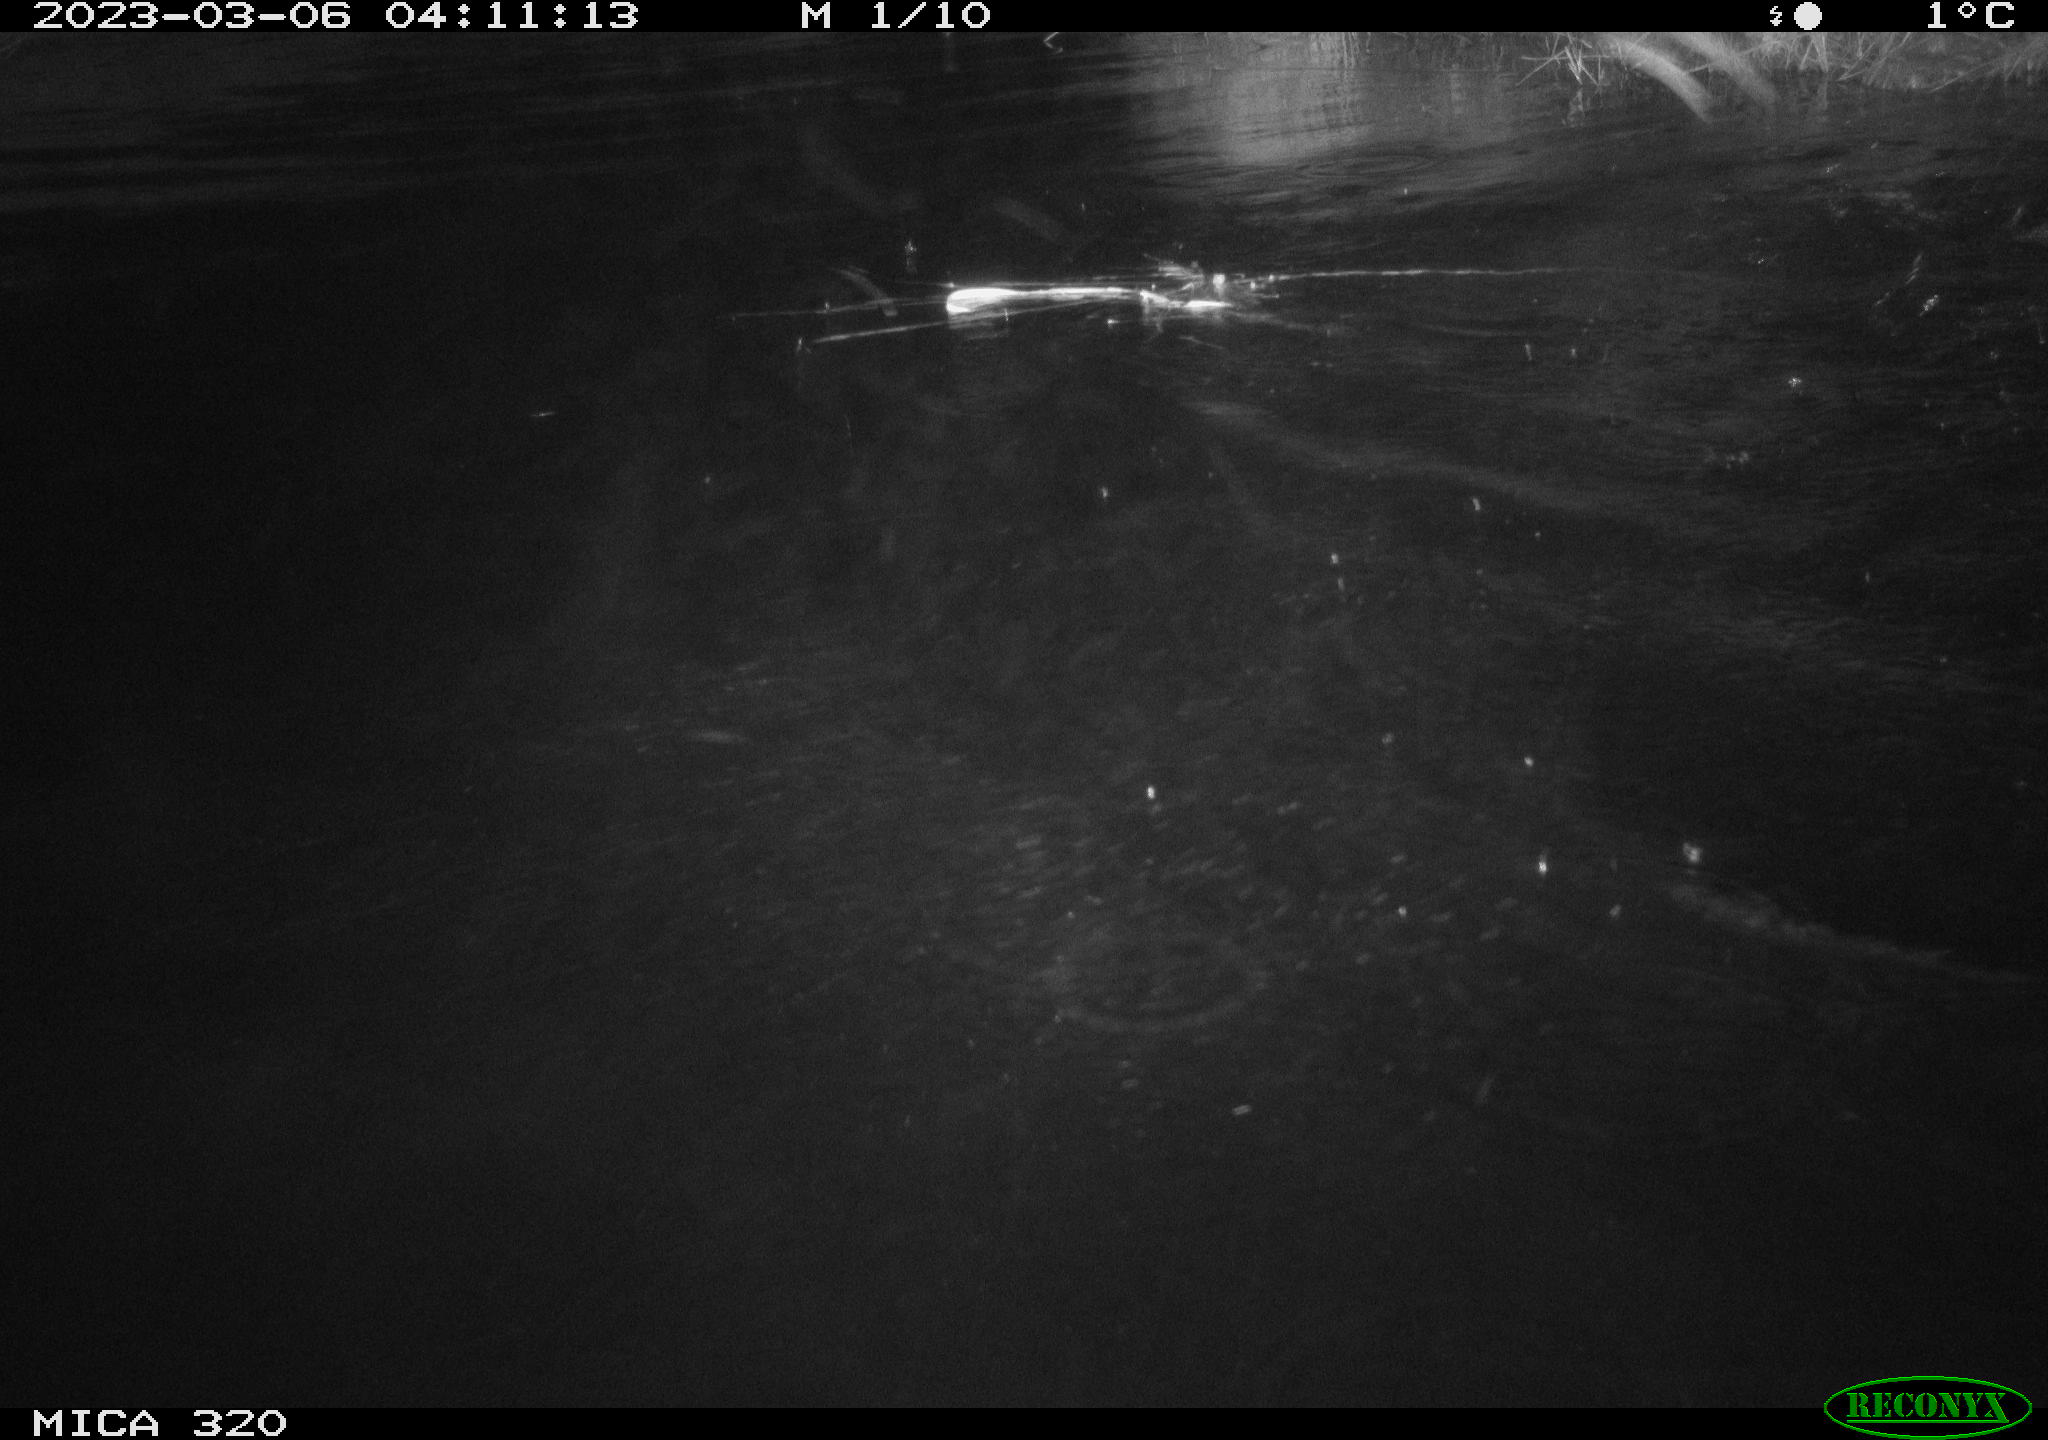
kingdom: Animalia
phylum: Chordata
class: Mammalia
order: Rodentia
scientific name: Rodentia
